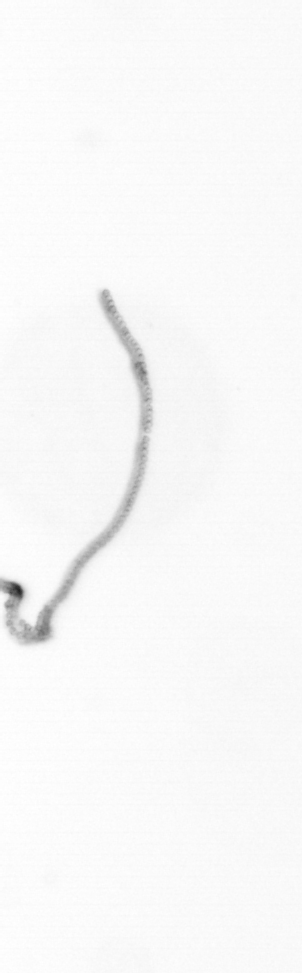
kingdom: Chromista
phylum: Ochrophyta
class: Bacillariophyceae
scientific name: Bacillariophyceae
